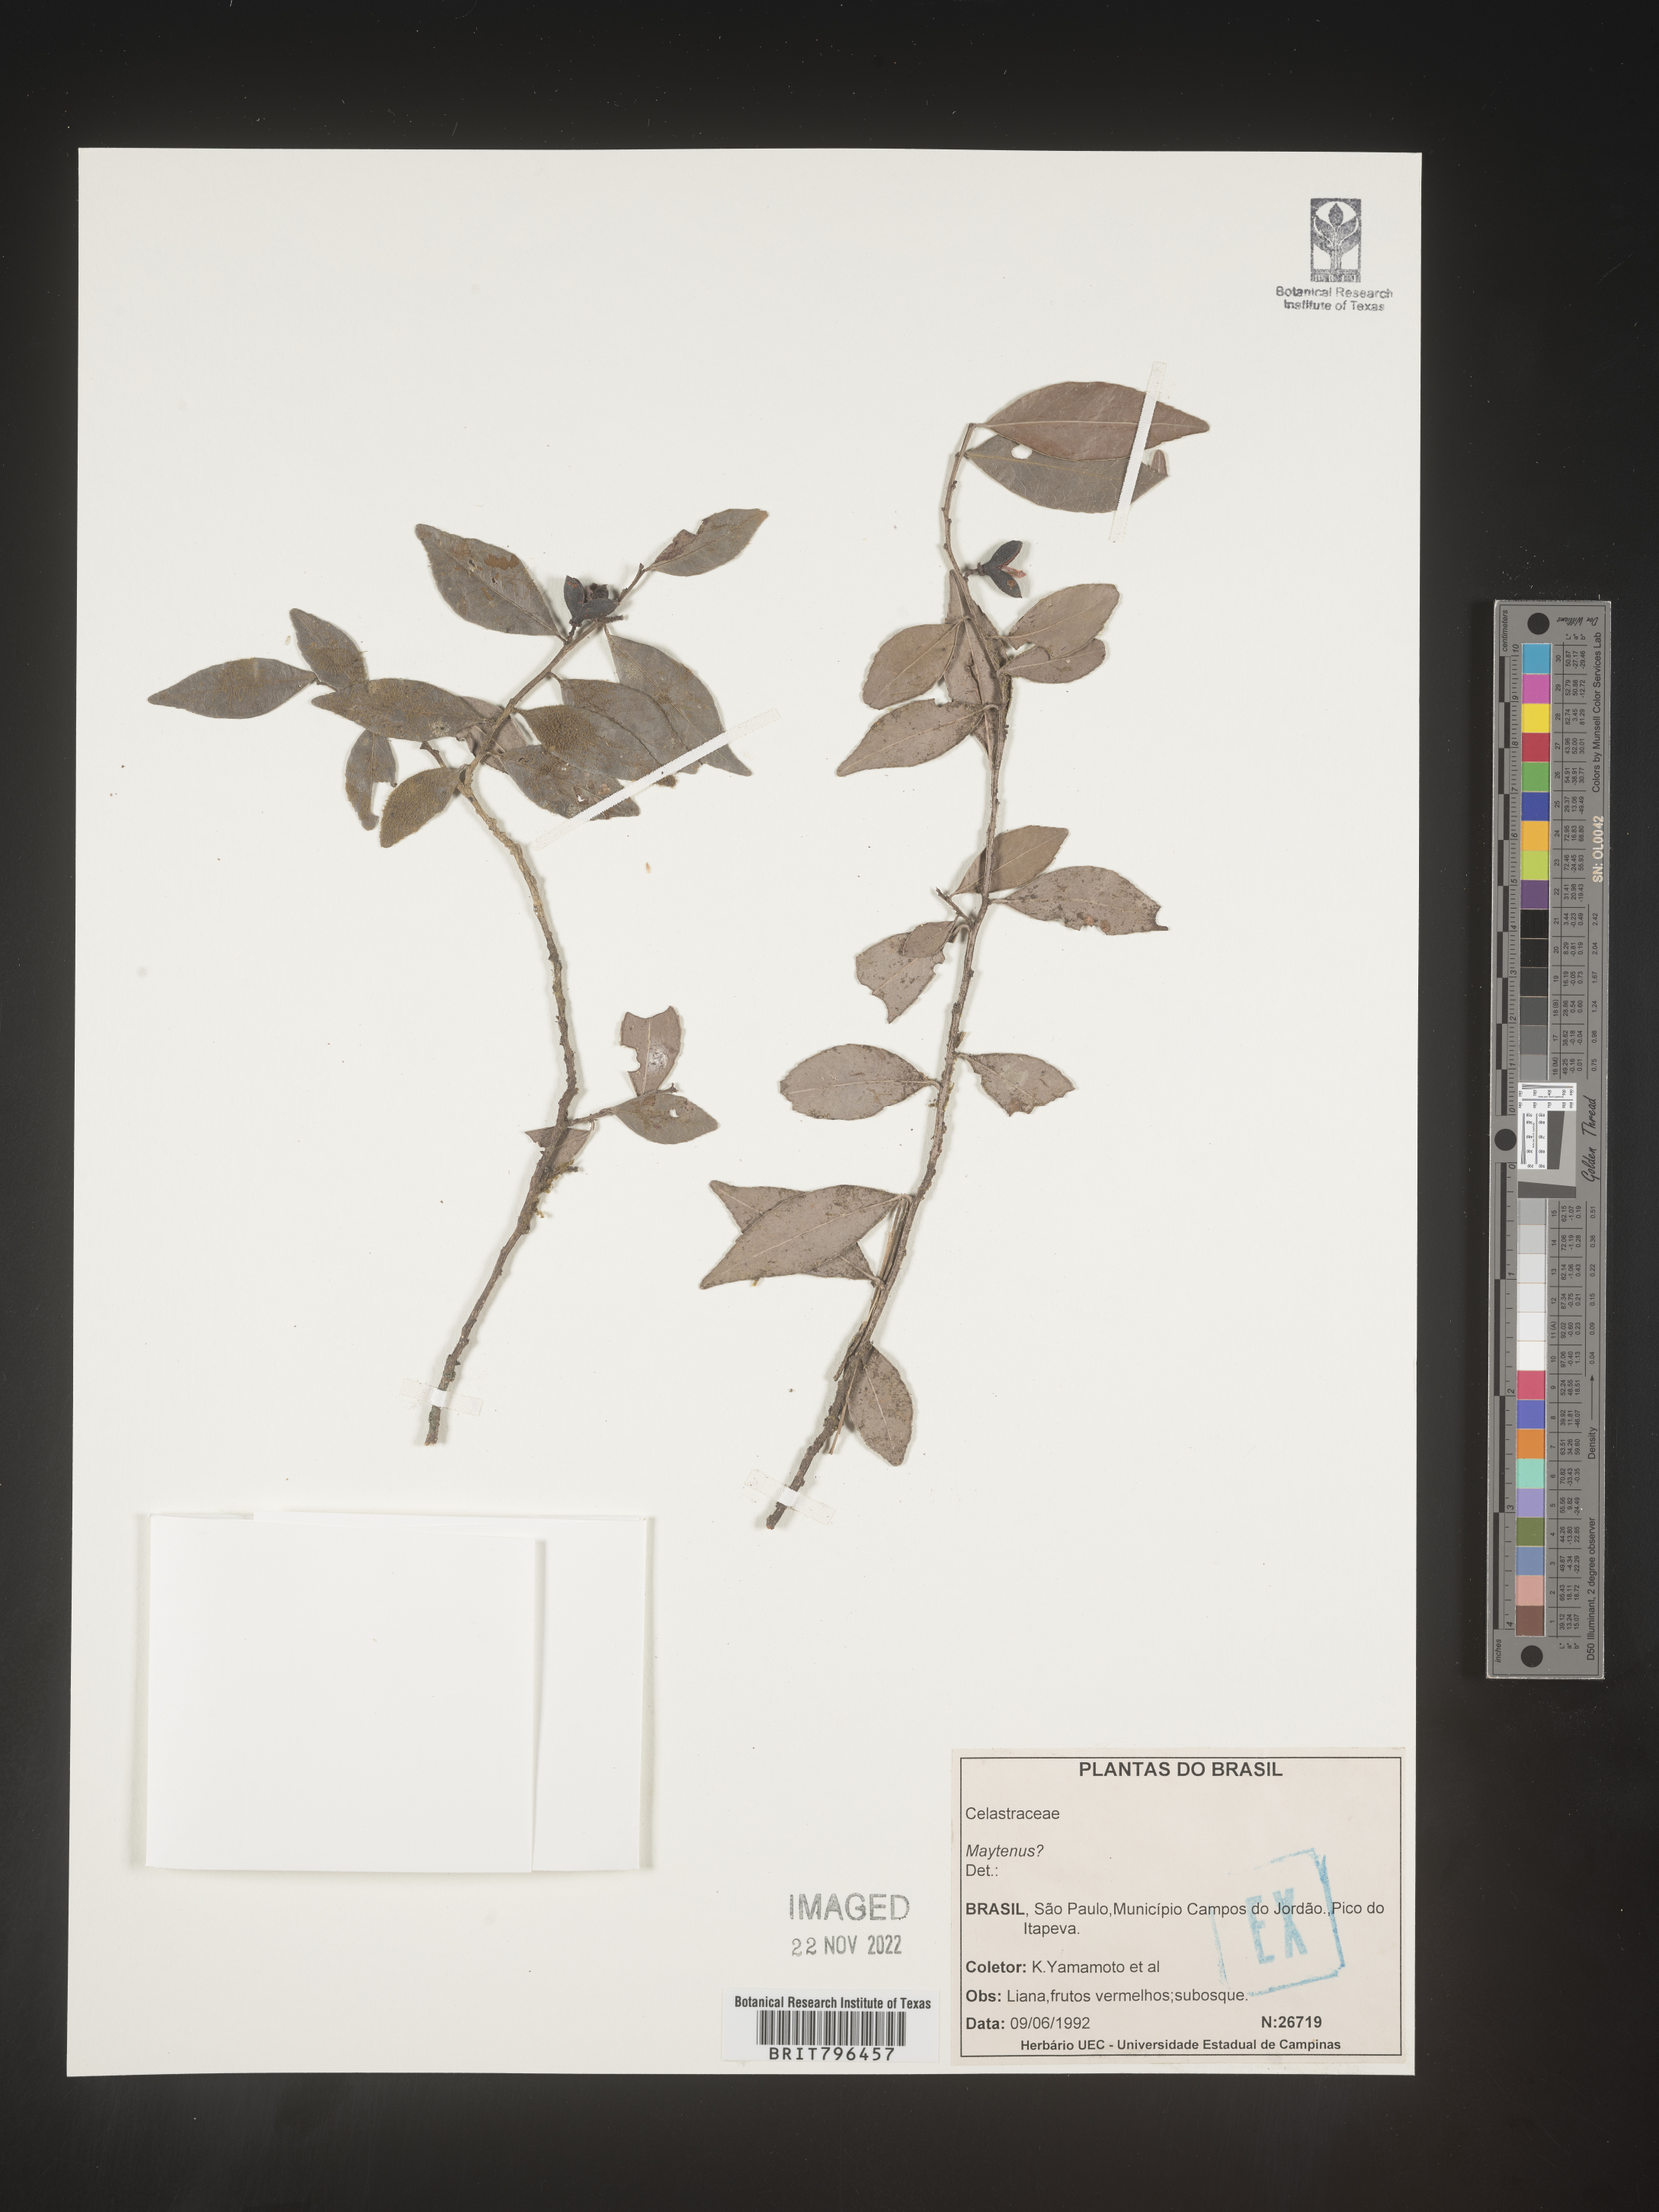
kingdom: Plantae
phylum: Tracheophyta
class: Magnoliopsida
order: Celastrales
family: Celastraceae
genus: Maytenus
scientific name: Maytenus
